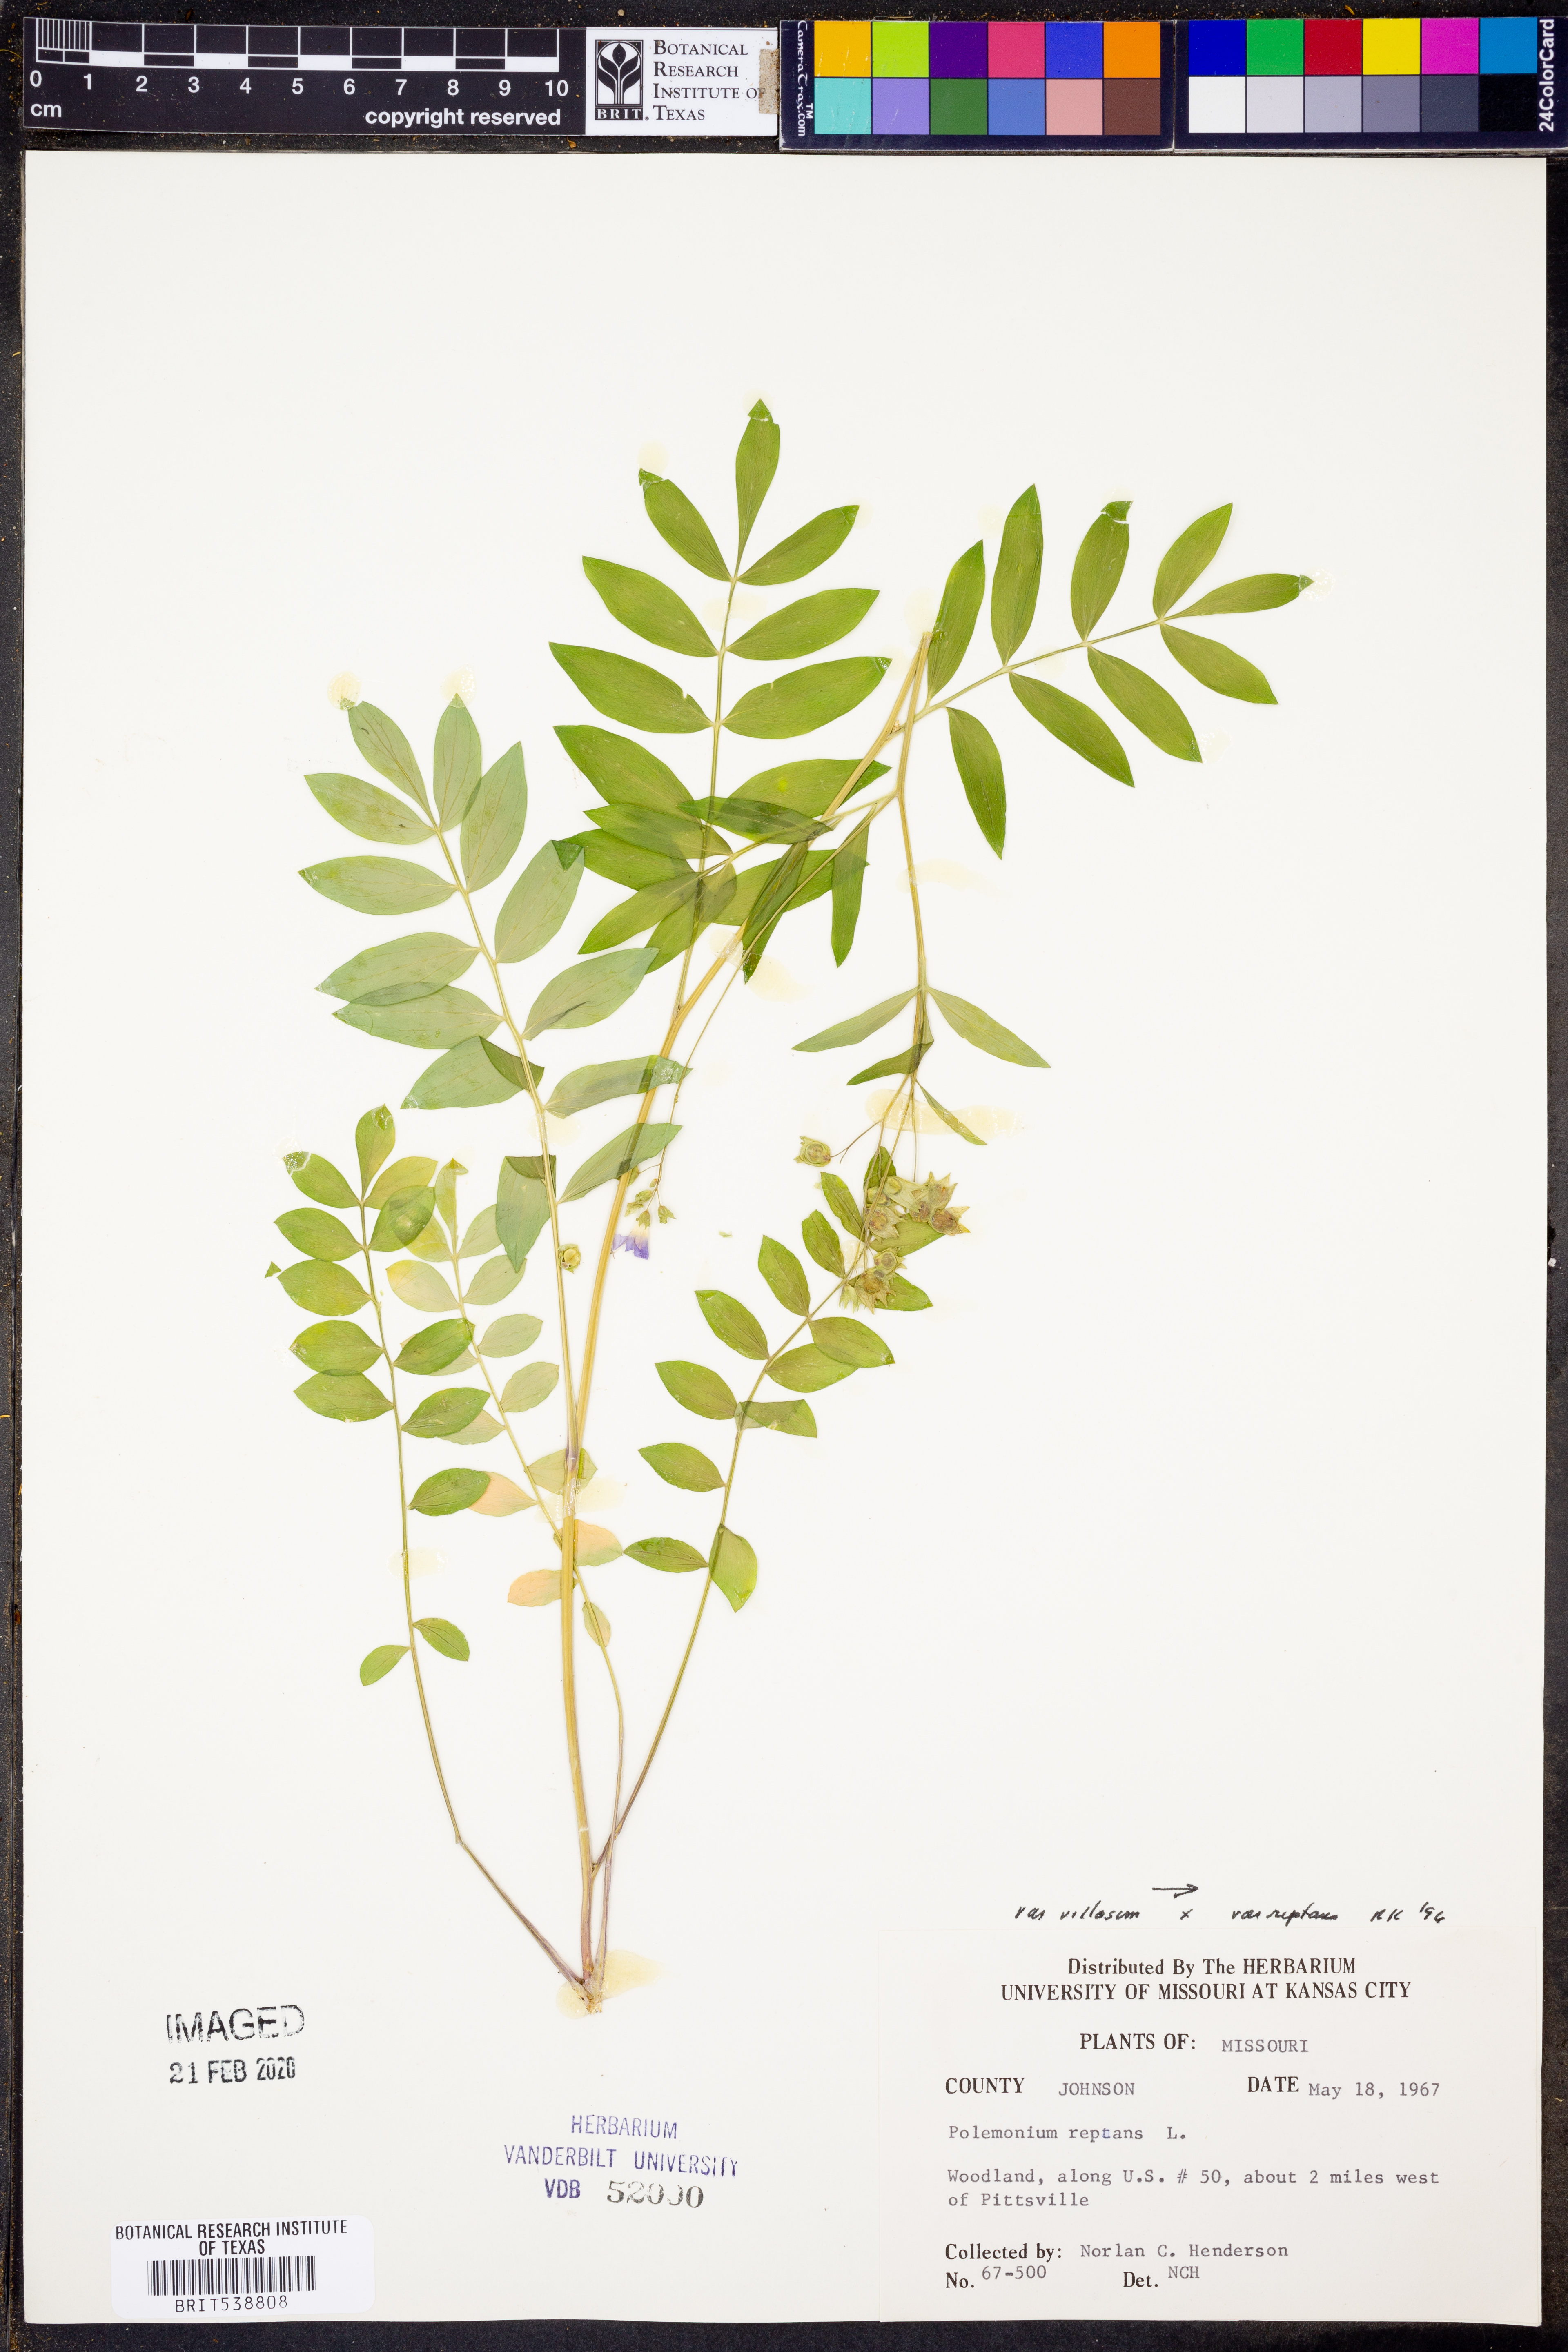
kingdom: Plantae
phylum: Tracheophyta
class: Magnoliopsida
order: Ericales
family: Polemoniaceae
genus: Polemonium
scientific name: Polemonium reptans
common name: Creeping jacob's-ladder
